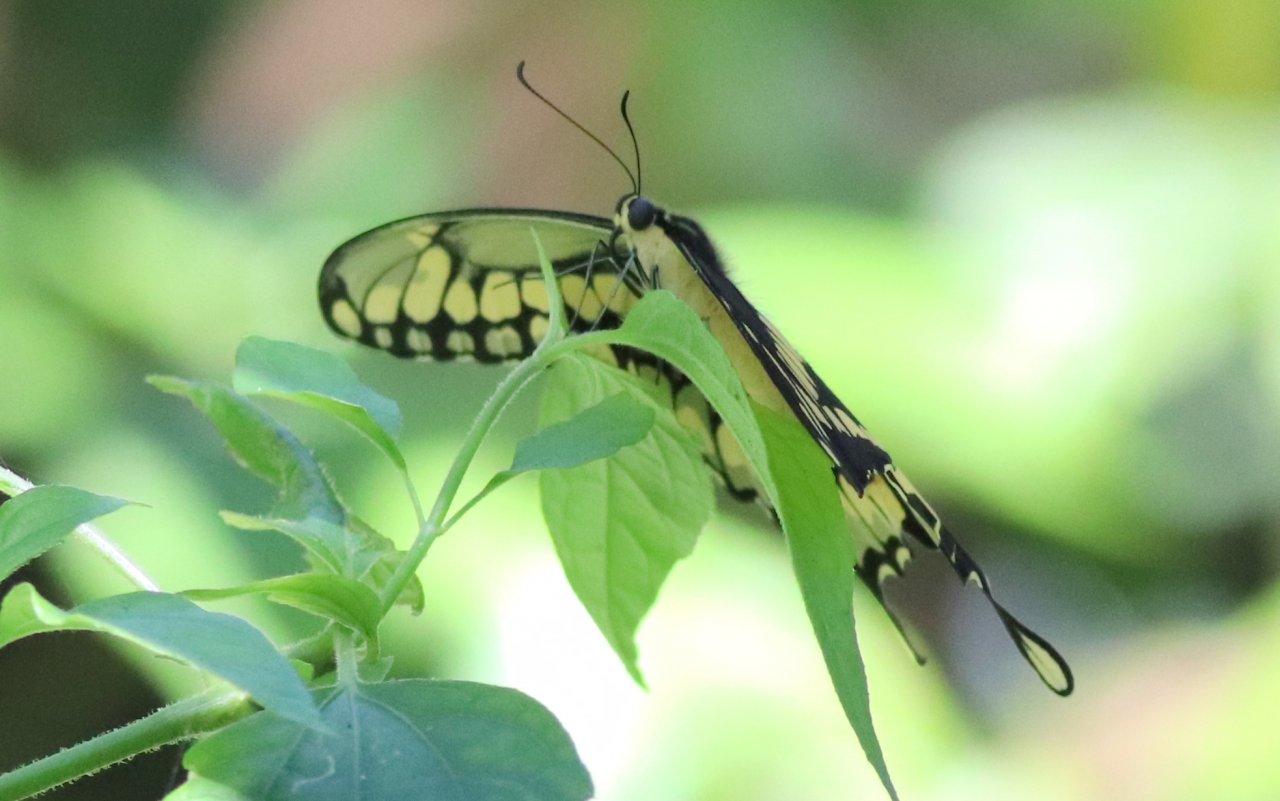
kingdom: Animalia
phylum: Arthropoda
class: Insecta
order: Lepidoptera
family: Papilionidae
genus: Papilio
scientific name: Papilio cresphontes
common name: Eastern Giant Swallowtail
